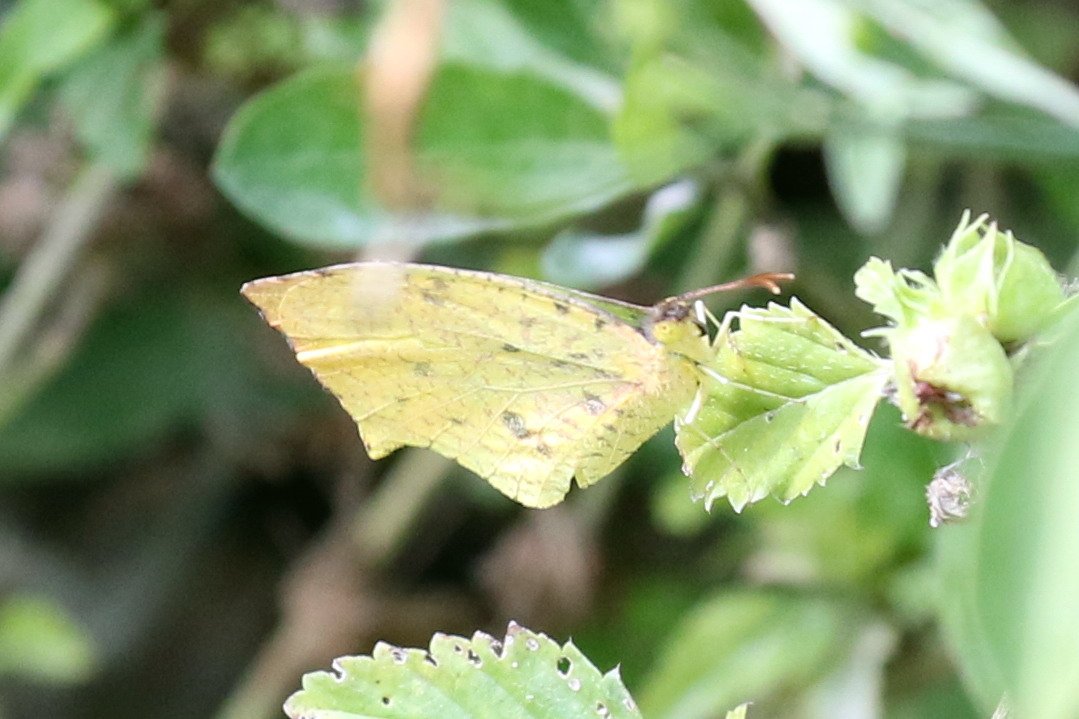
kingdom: Animalia
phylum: Arthropoda
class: Insecta
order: Lepidoptera
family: Pieridae
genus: Eurema
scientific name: Eurema salome
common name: Salome Yellow
